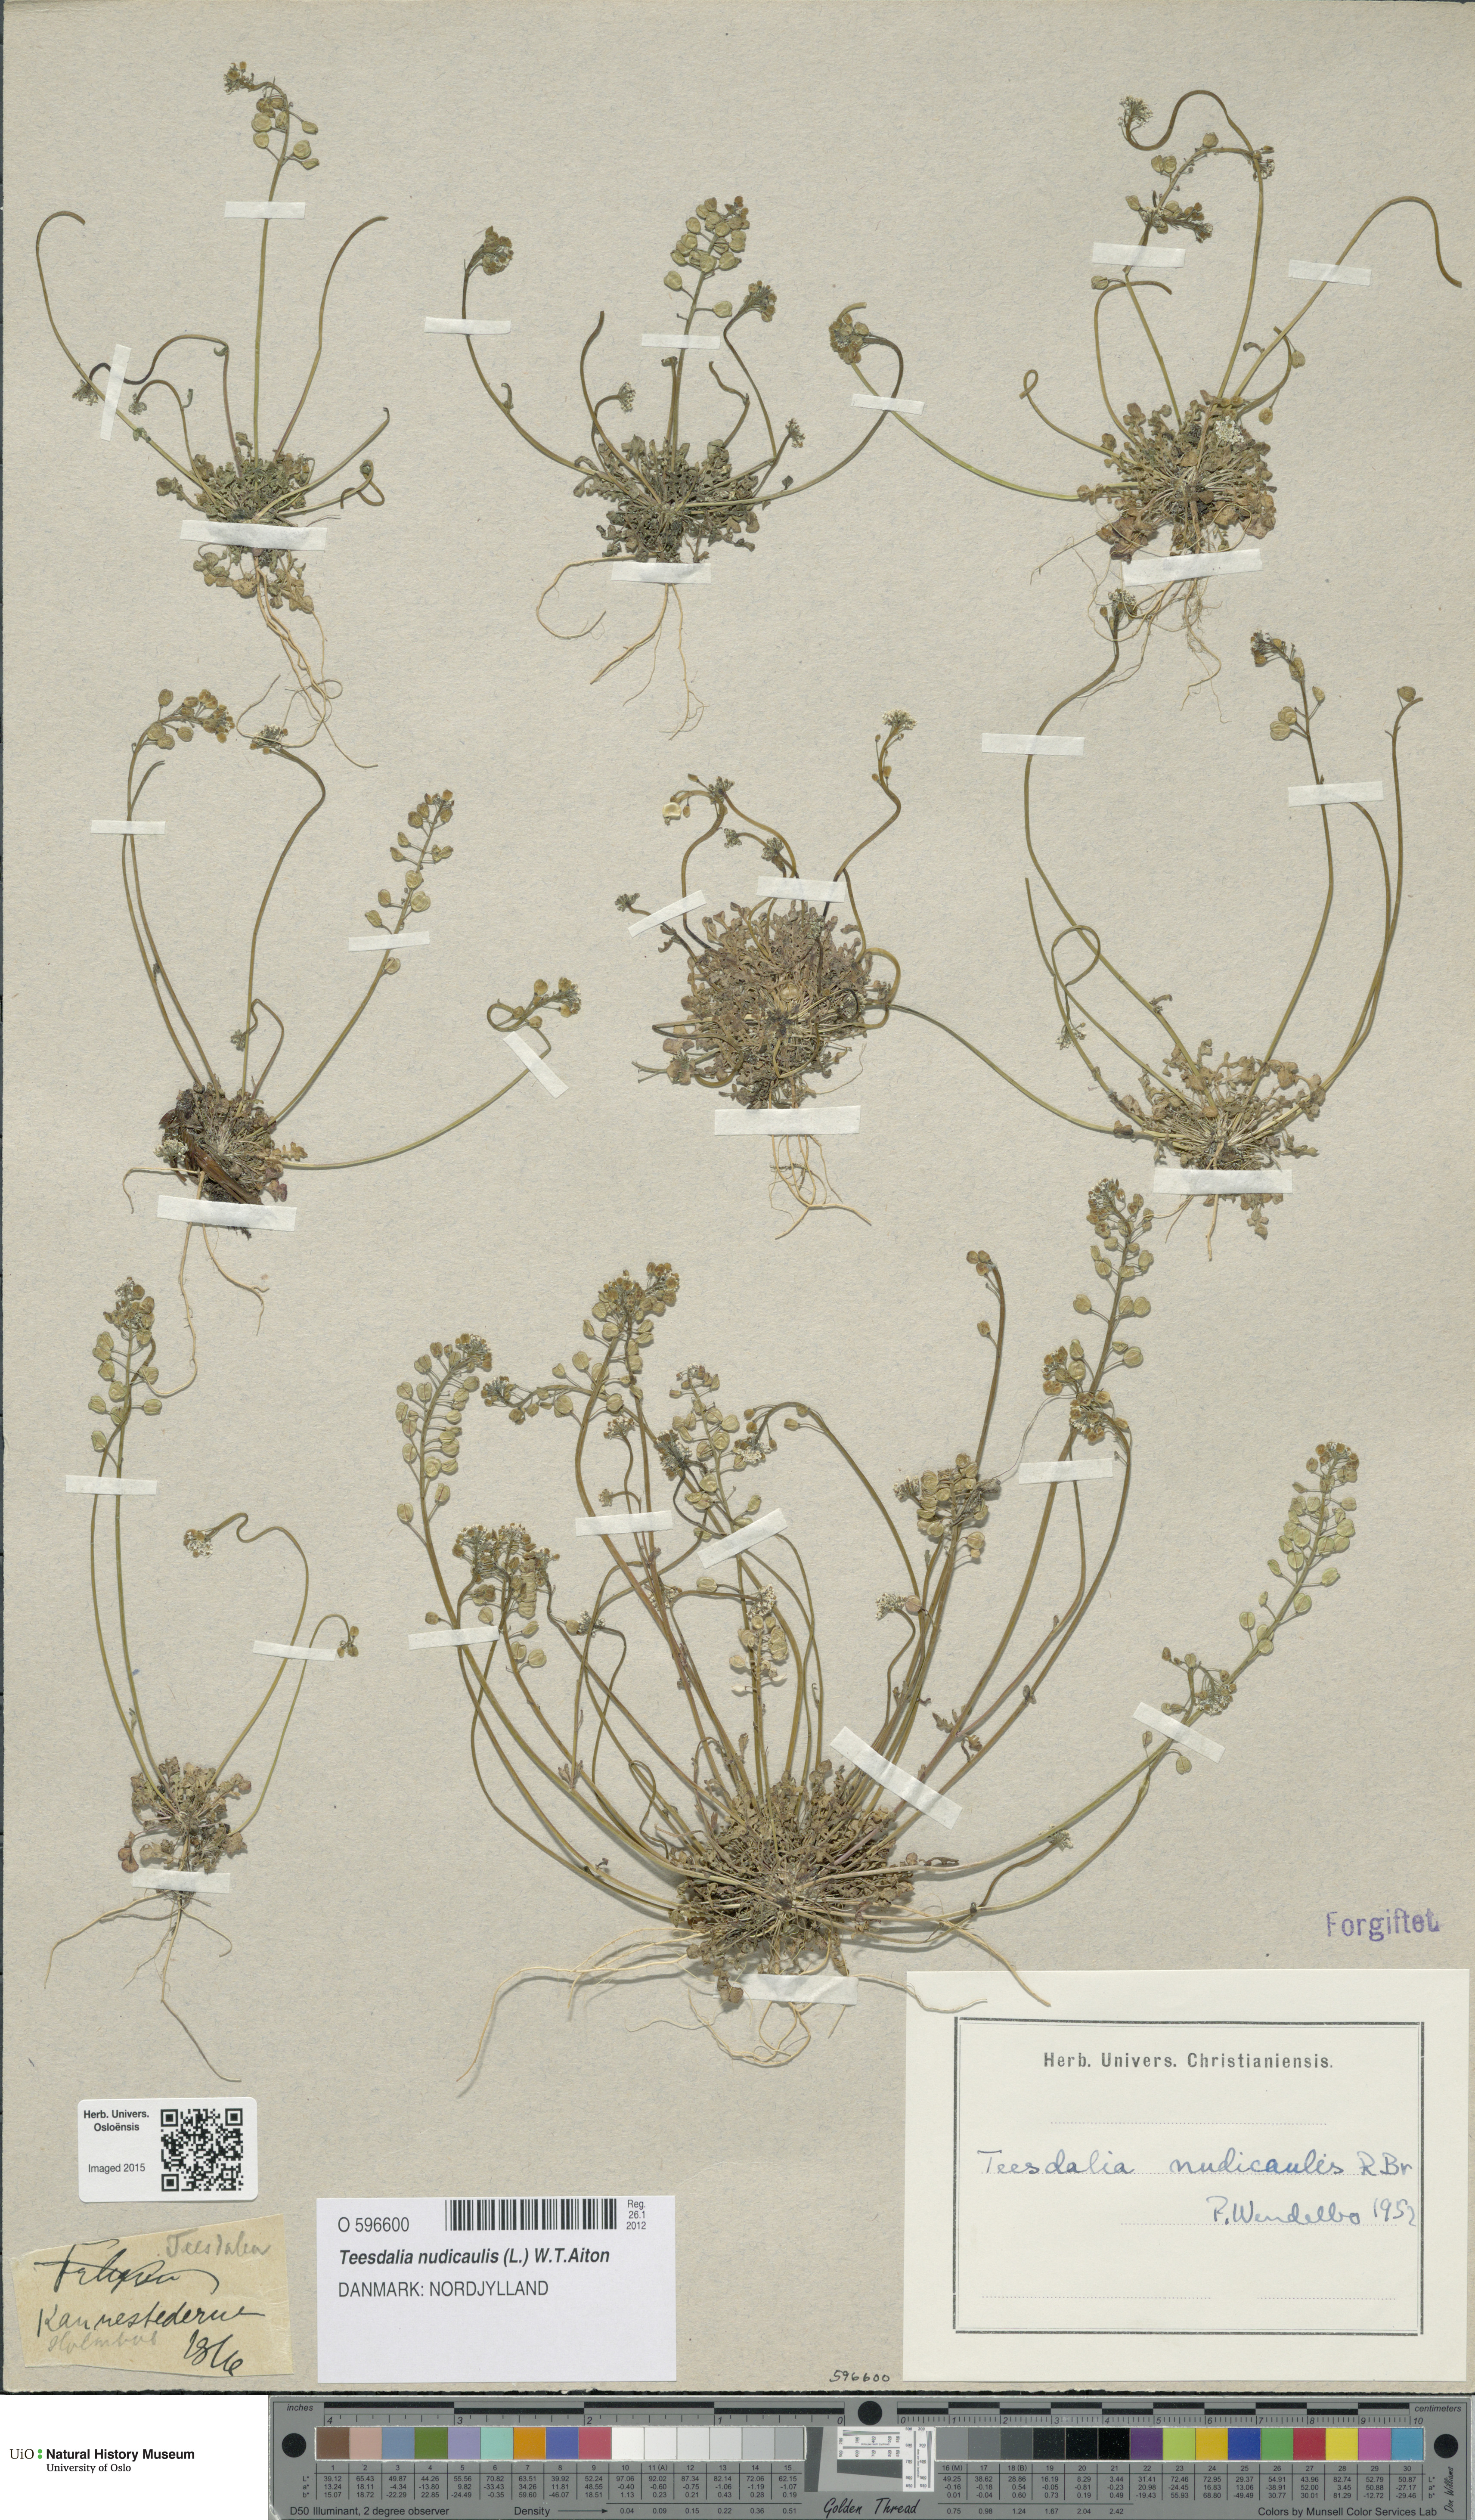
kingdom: Plantae
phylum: Tracheophyta
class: Magnoliopsida
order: Brassicales
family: Brassicaceae
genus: Teesdalia
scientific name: Teesdalia nudicaulis
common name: Shepherd's cress
